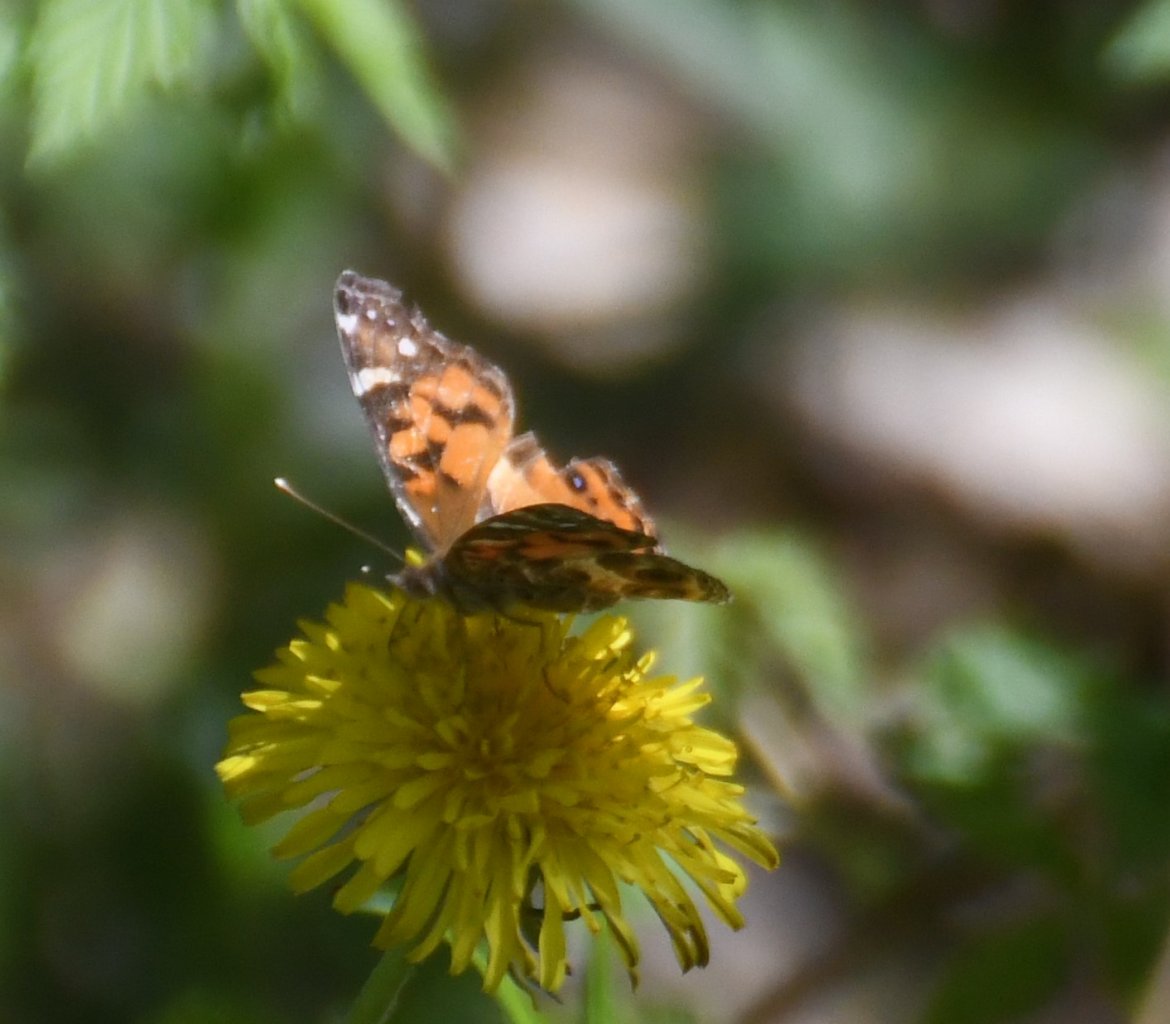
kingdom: Animalia
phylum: Arthropoda
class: Insecta
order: Lepidoptera
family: Nymphalidae
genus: Vanessa
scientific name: Vanessa virginiensis
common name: American Lady
